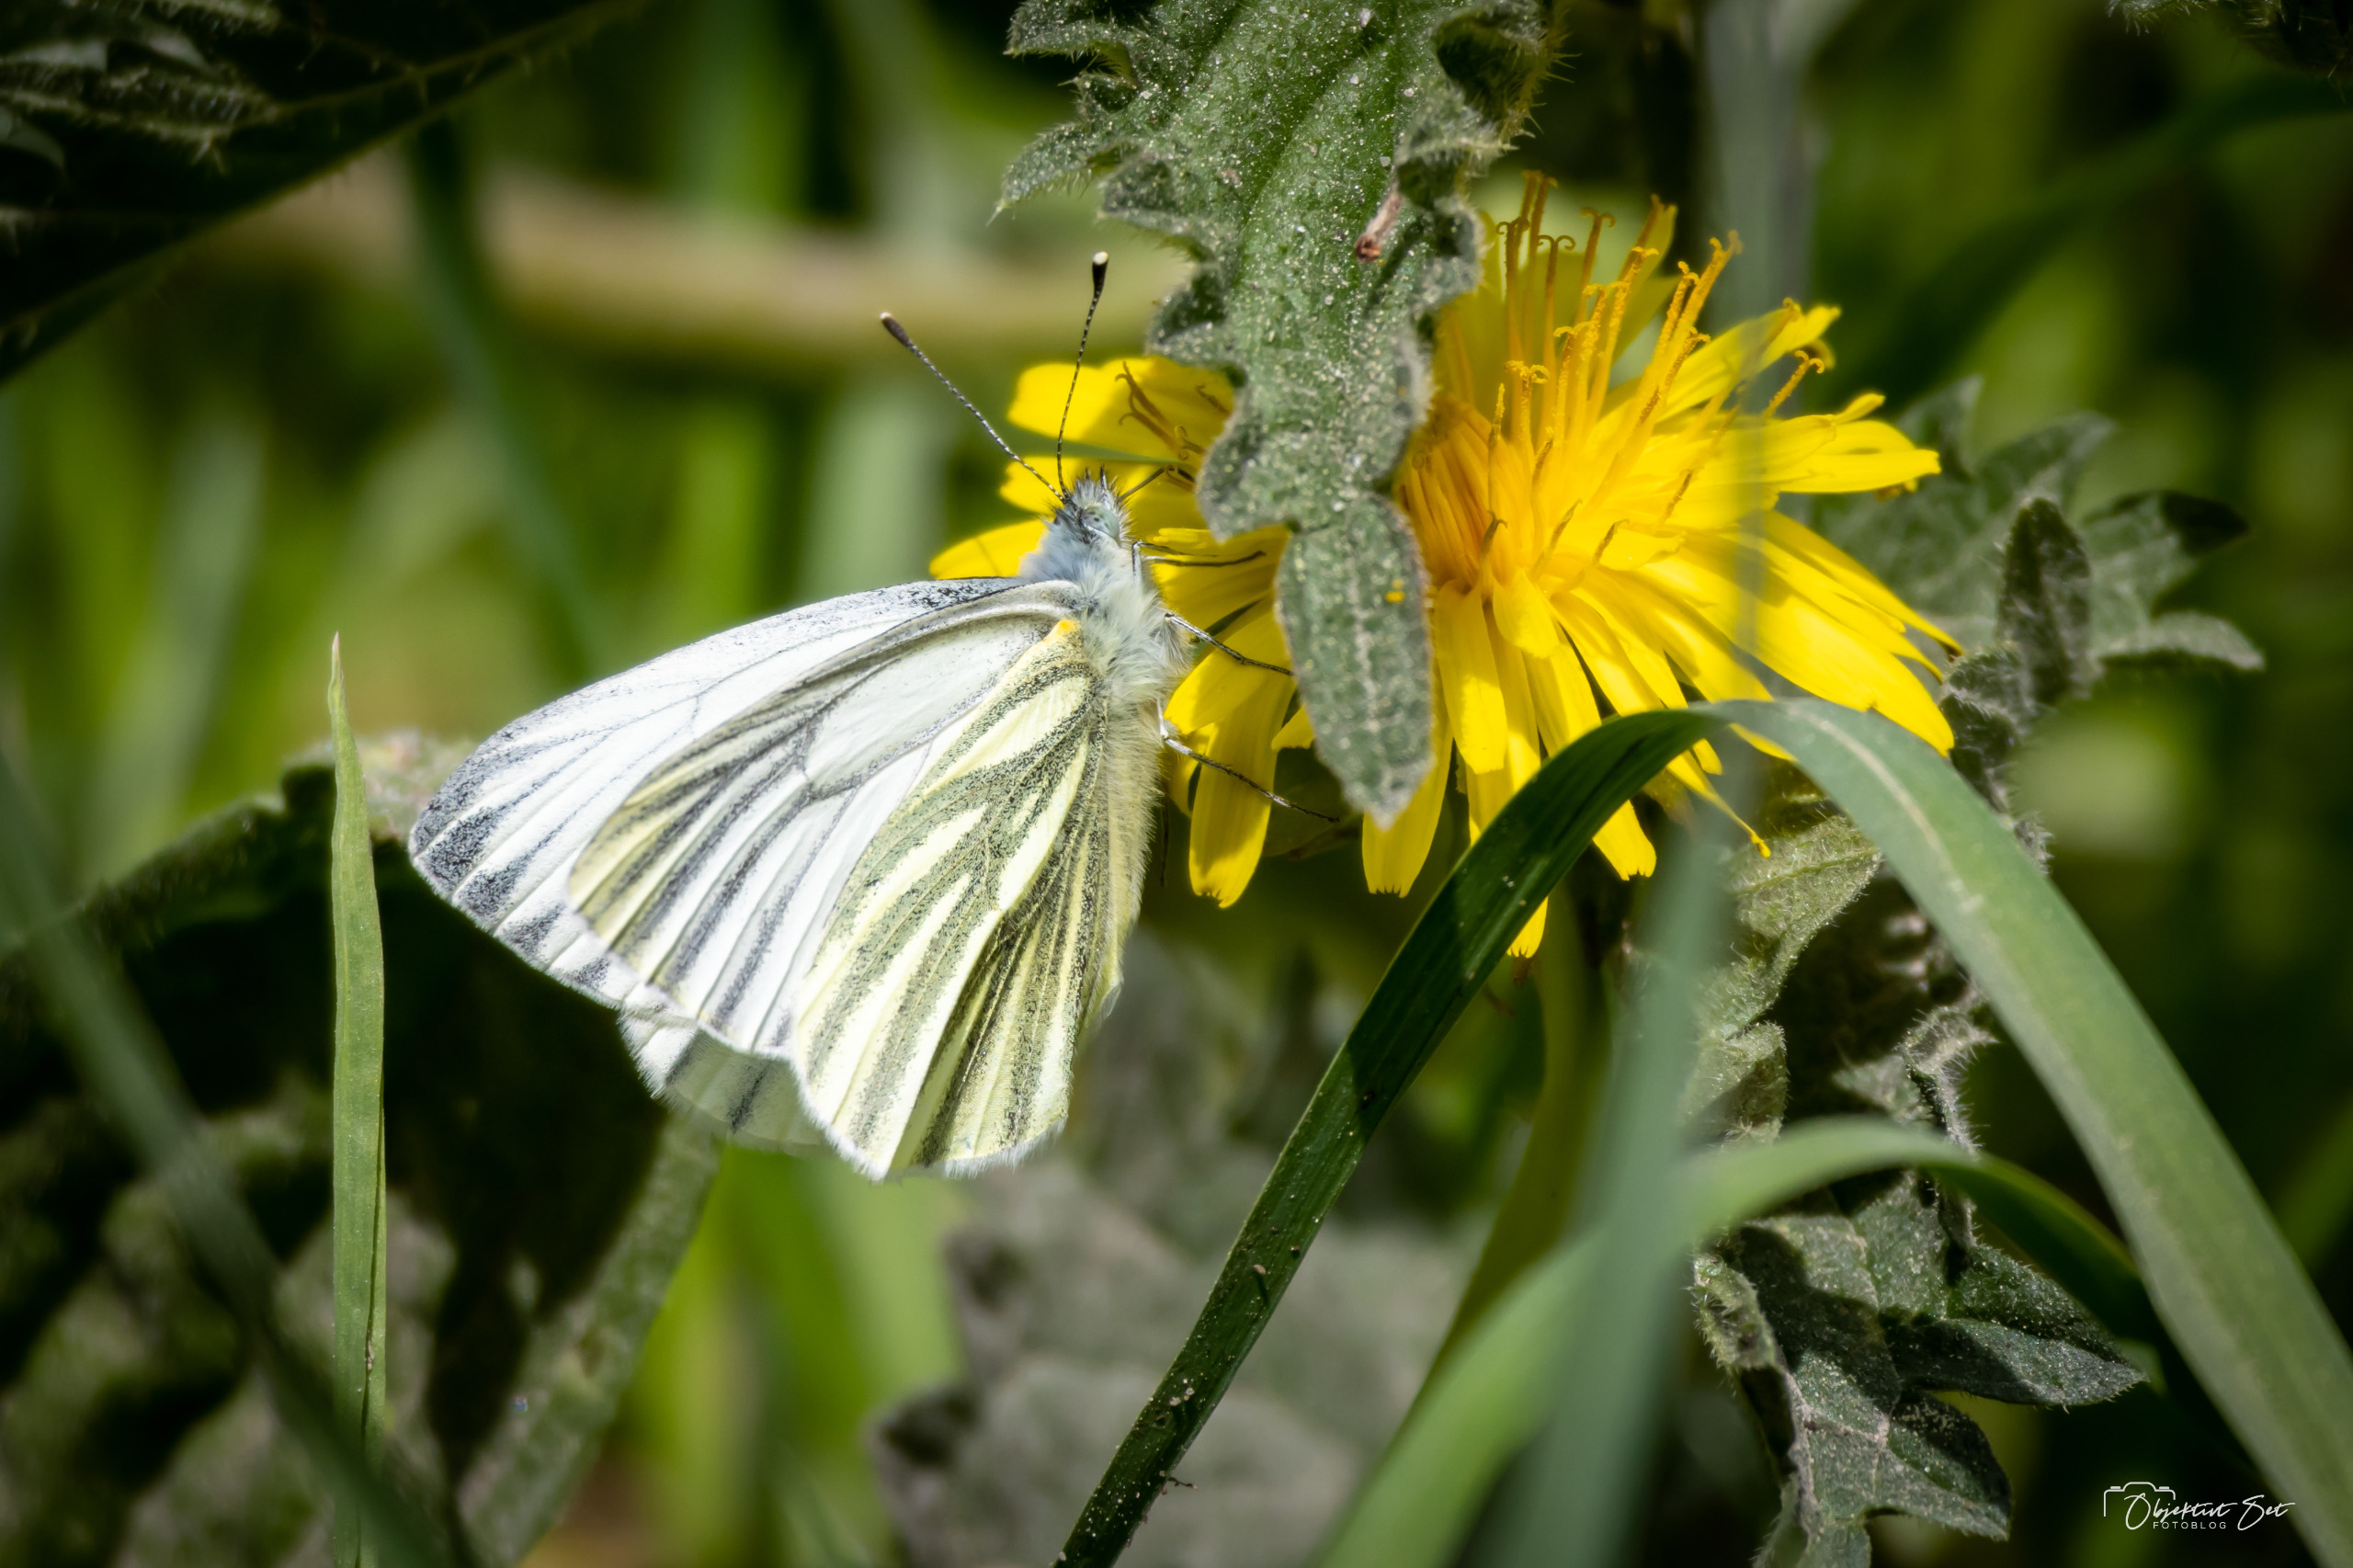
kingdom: Animalia
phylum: Arthropoda
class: Insecta
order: Lepidoptera
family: Pieridae
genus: Pieris
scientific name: Pieris napi
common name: Grønåret kålsommerfugl
